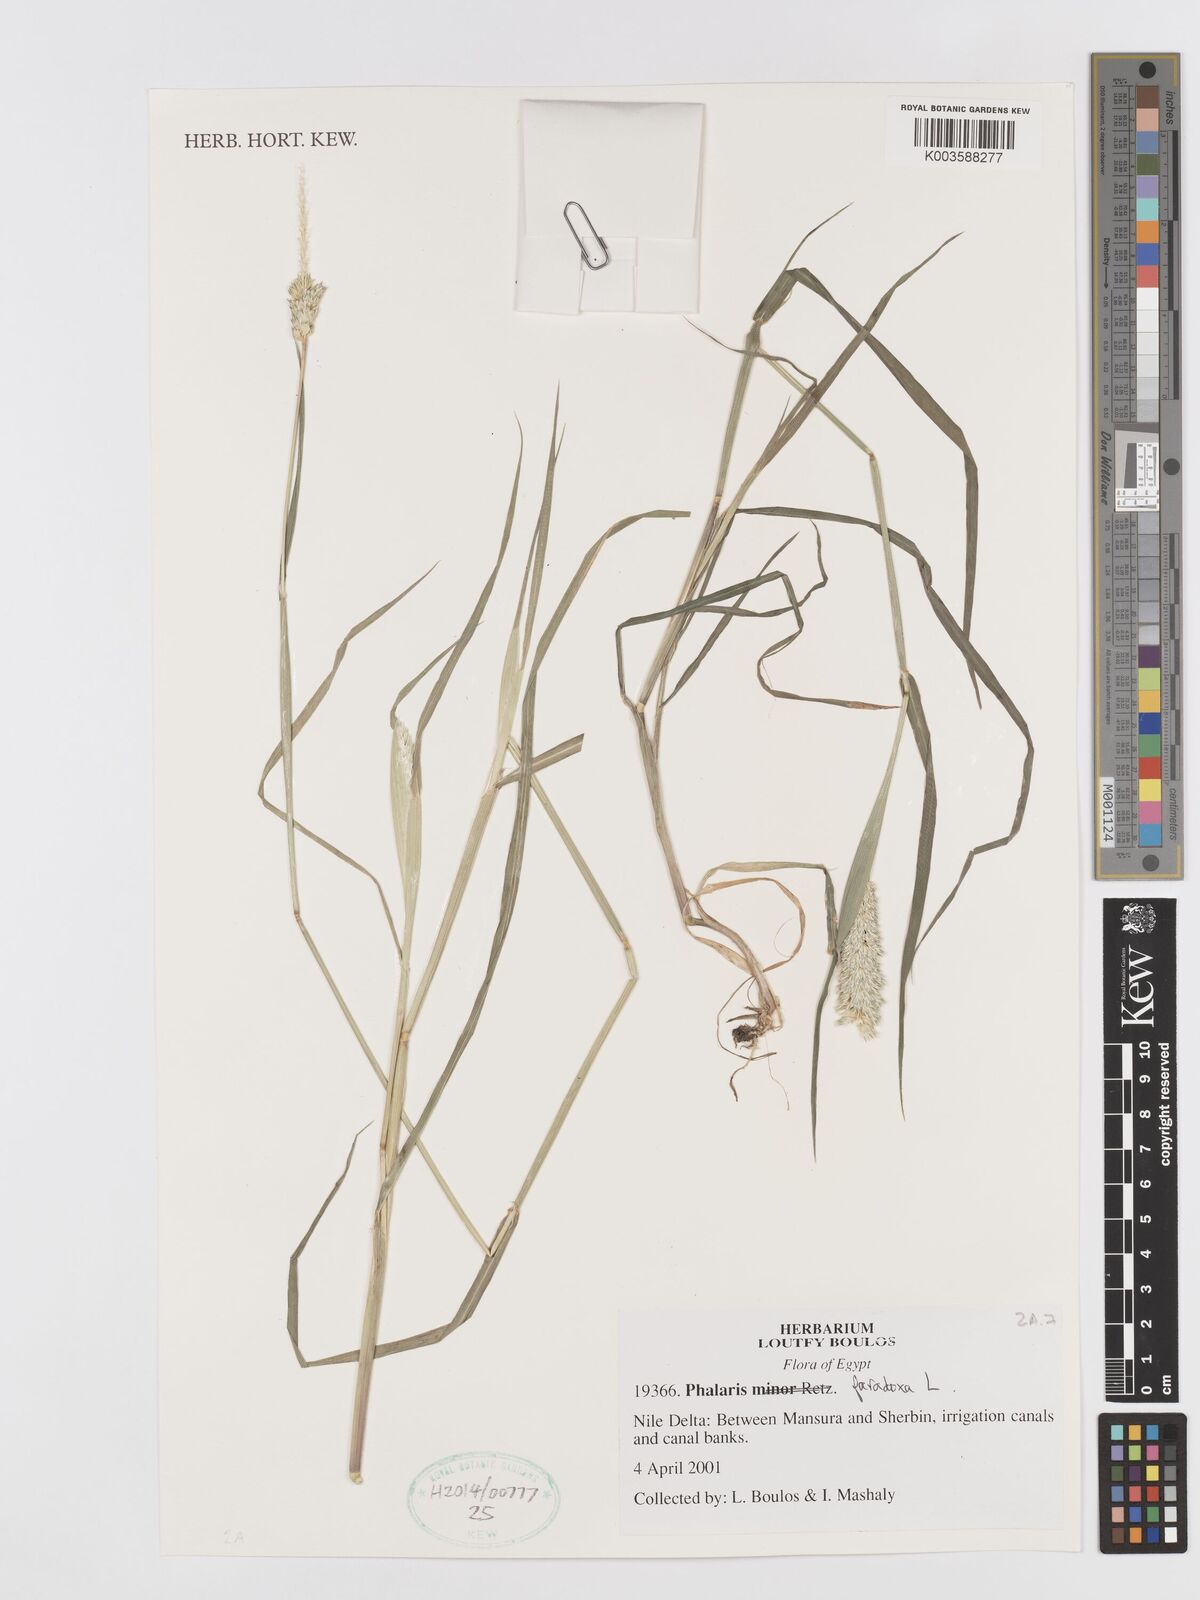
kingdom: Plantae
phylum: Tracheophyta
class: Liliopsida
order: Poales
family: Poaceae
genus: Phalaris
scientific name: Phalaris paradoxa
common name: Awned canary-grass
